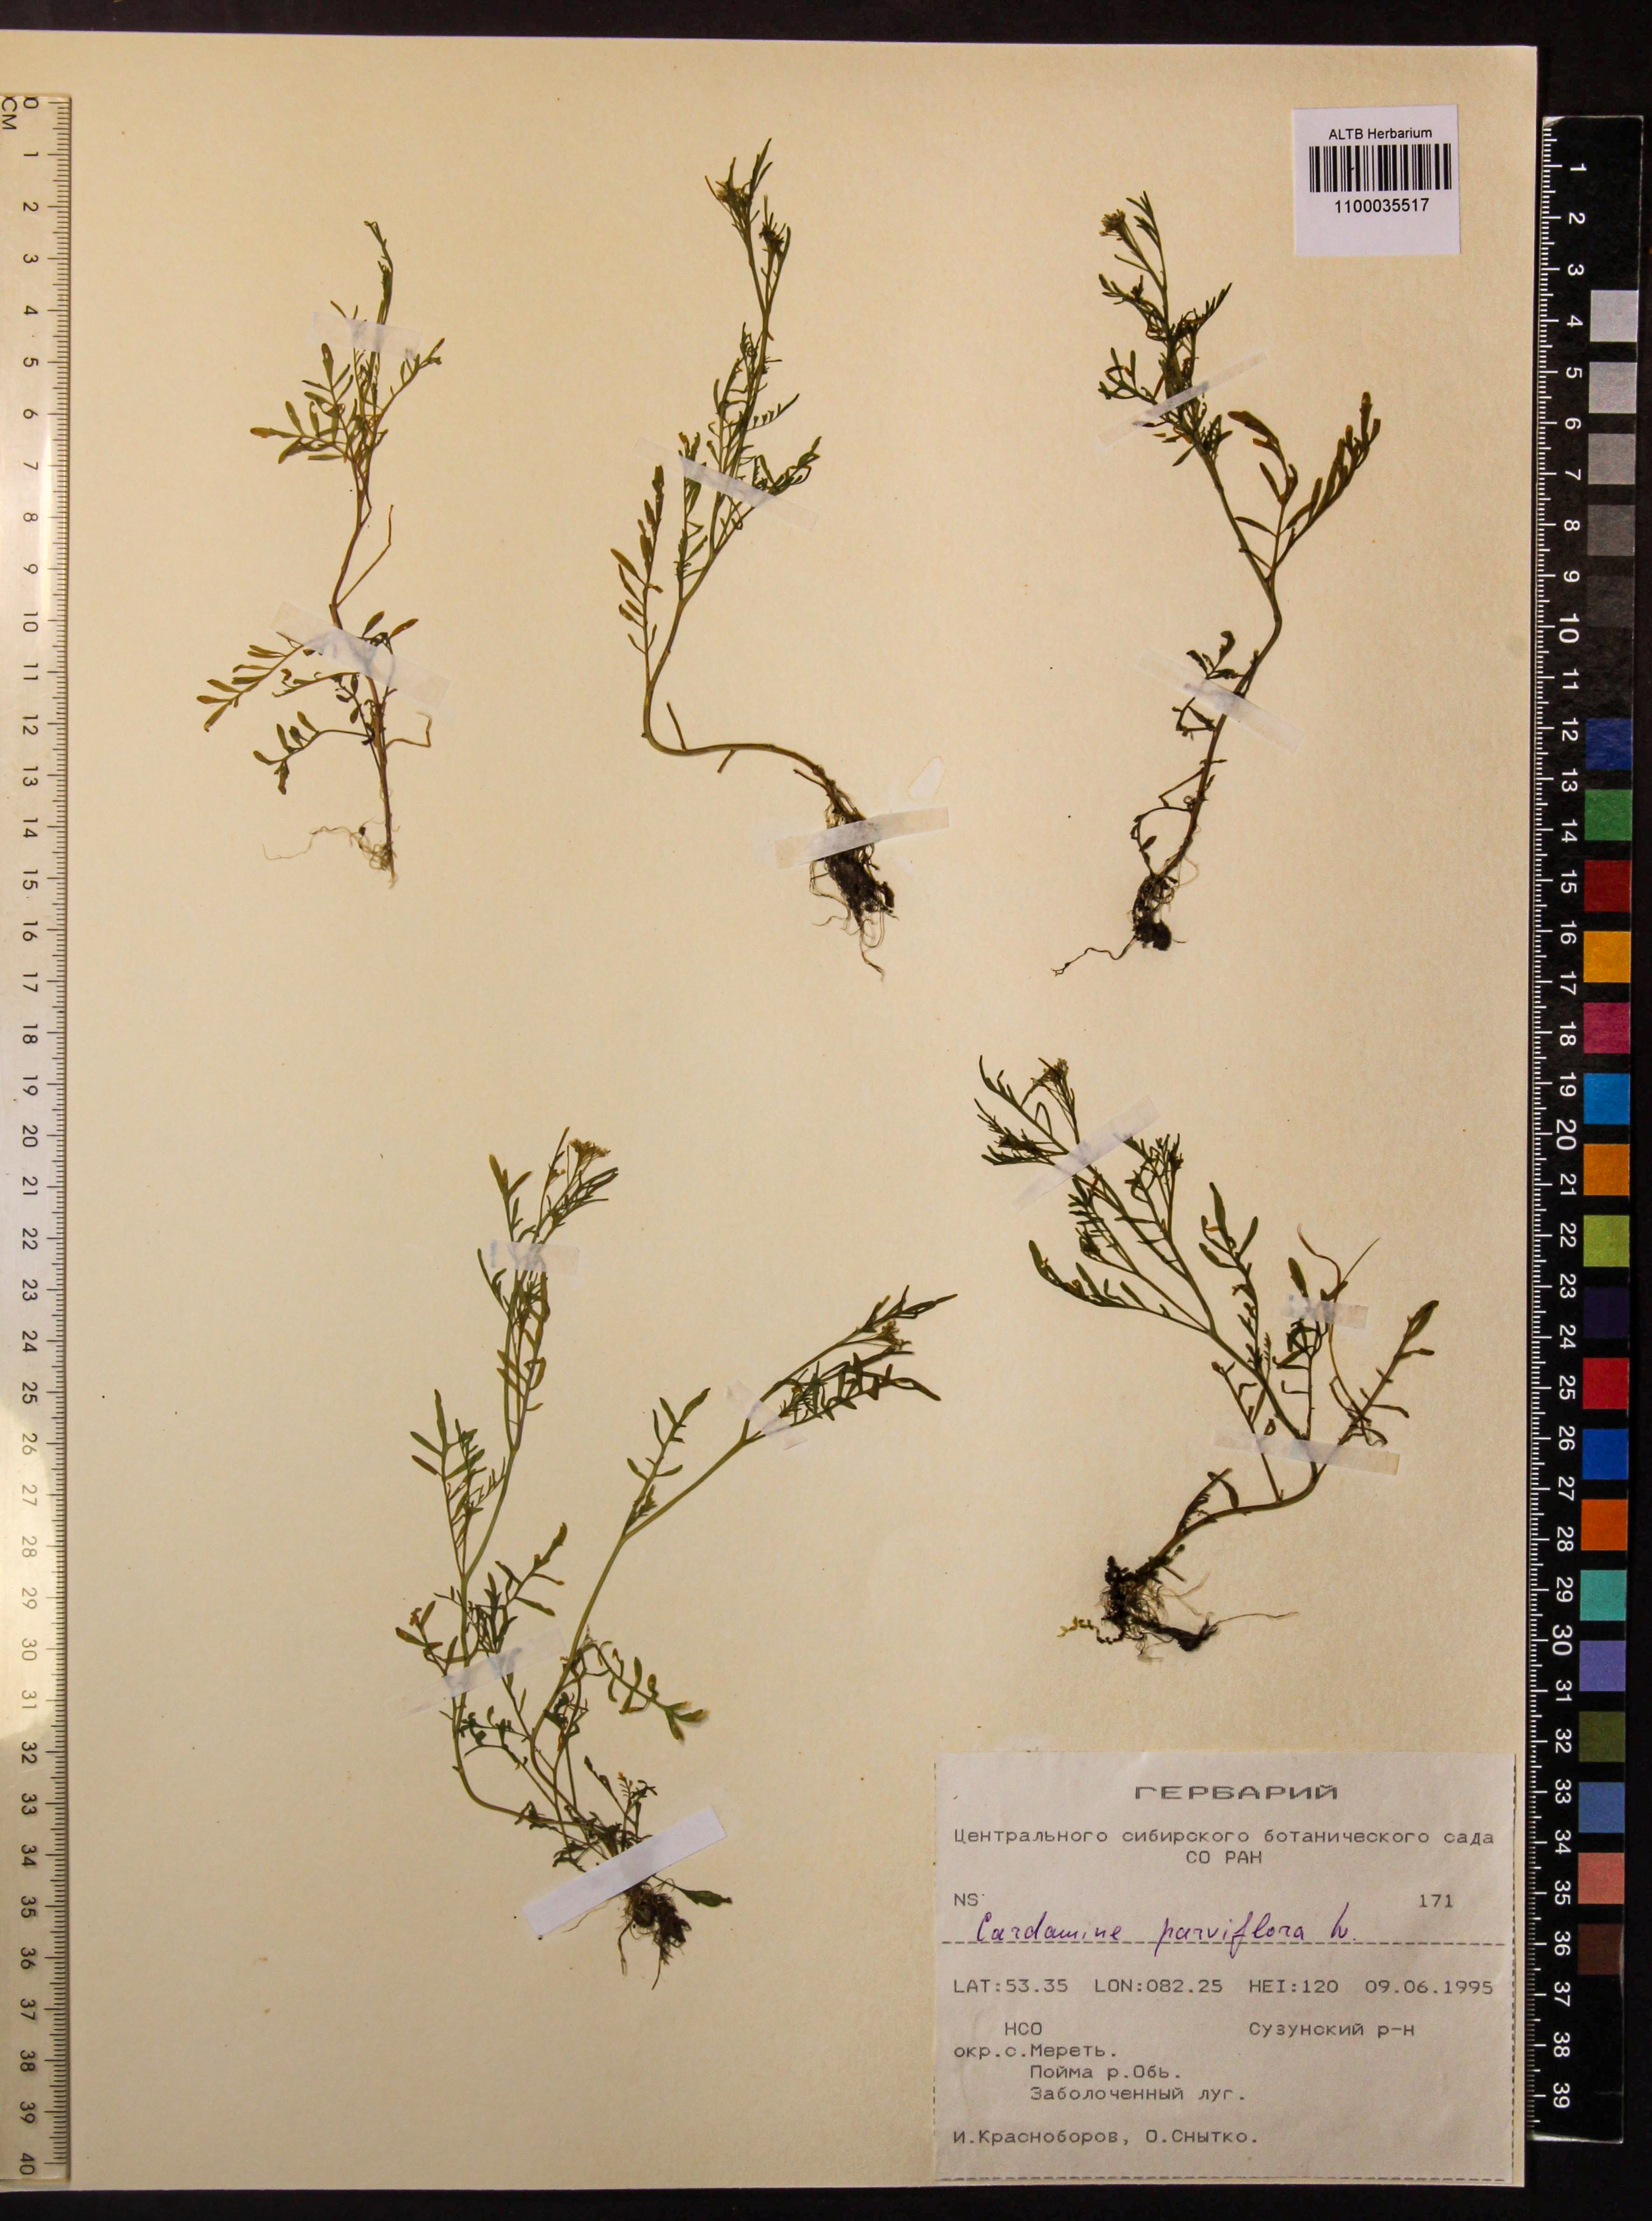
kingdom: Plantae
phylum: Tracheophyta
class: Magnoliopsida
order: Brassicales
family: Brassicaceae
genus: Cardamine
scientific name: Cardamine parviflora
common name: Sand bittercress
